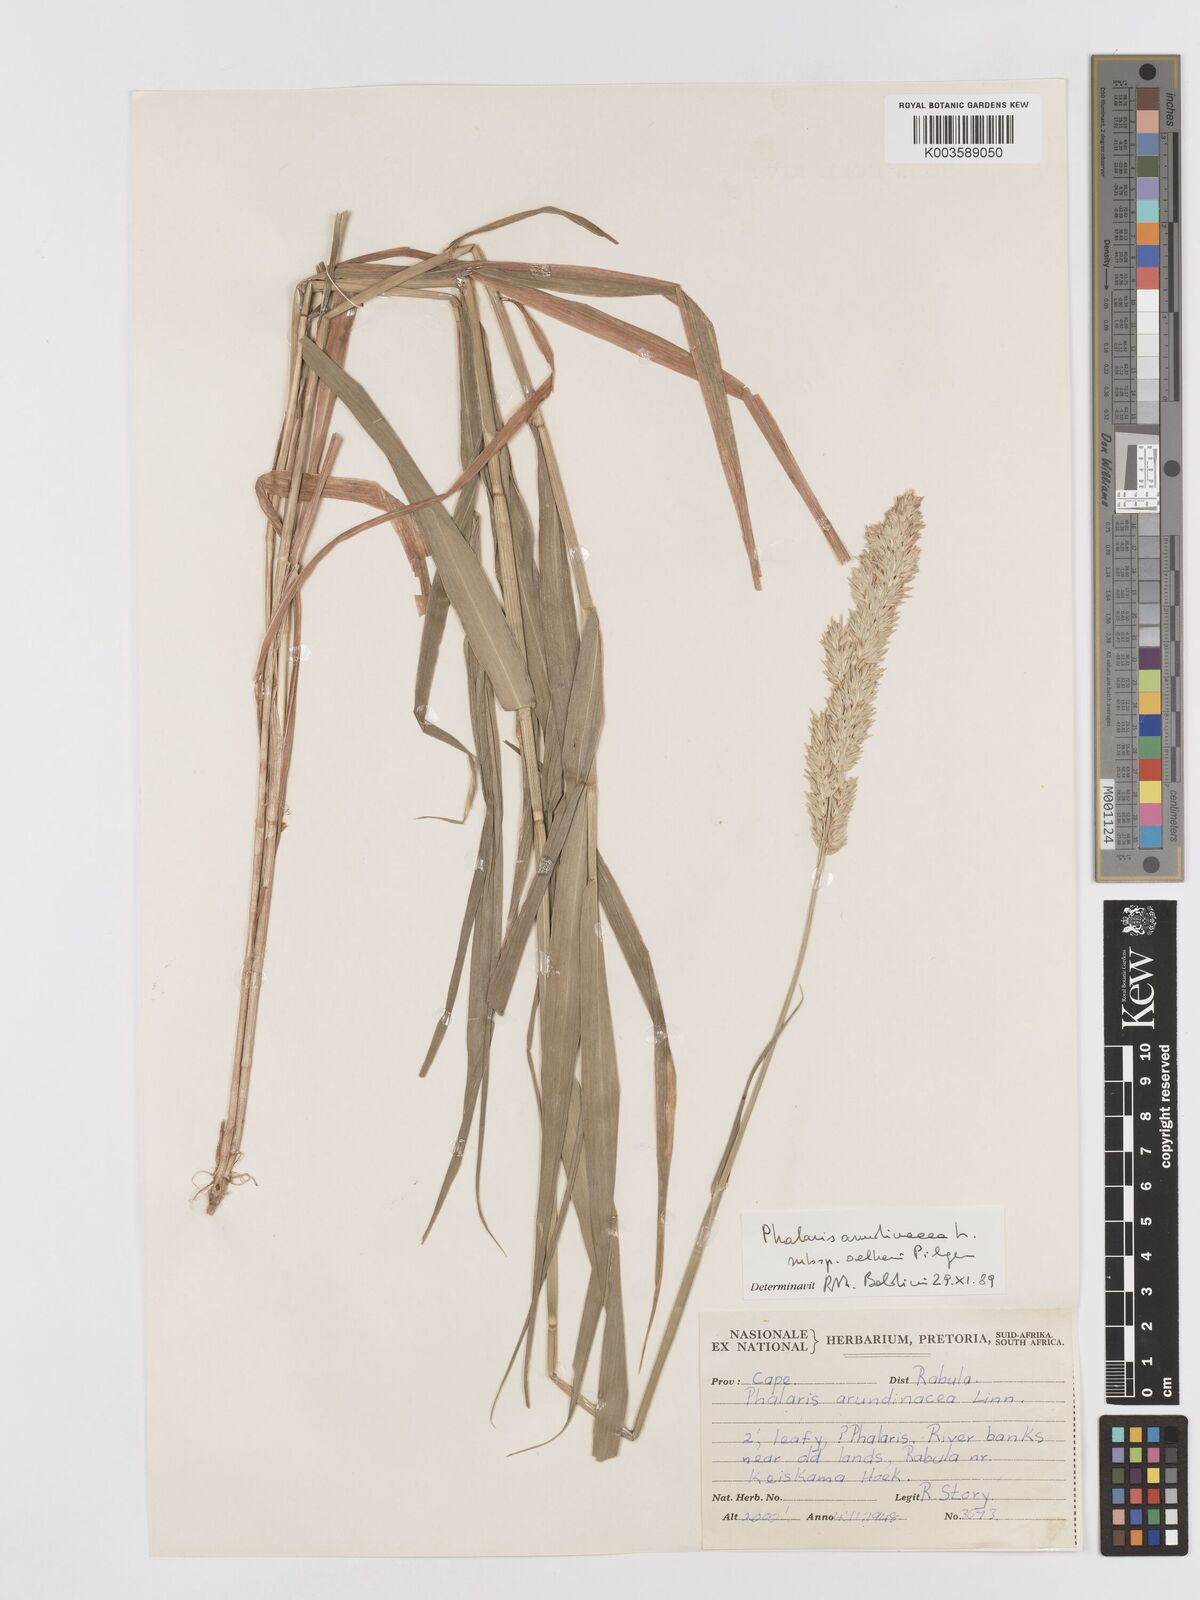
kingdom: Plantae
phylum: Tracheophyta
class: Liliopsida
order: Poales
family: Poaceae
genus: Phalaris
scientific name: Phalaris arundinacea
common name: Reed canary-grass
